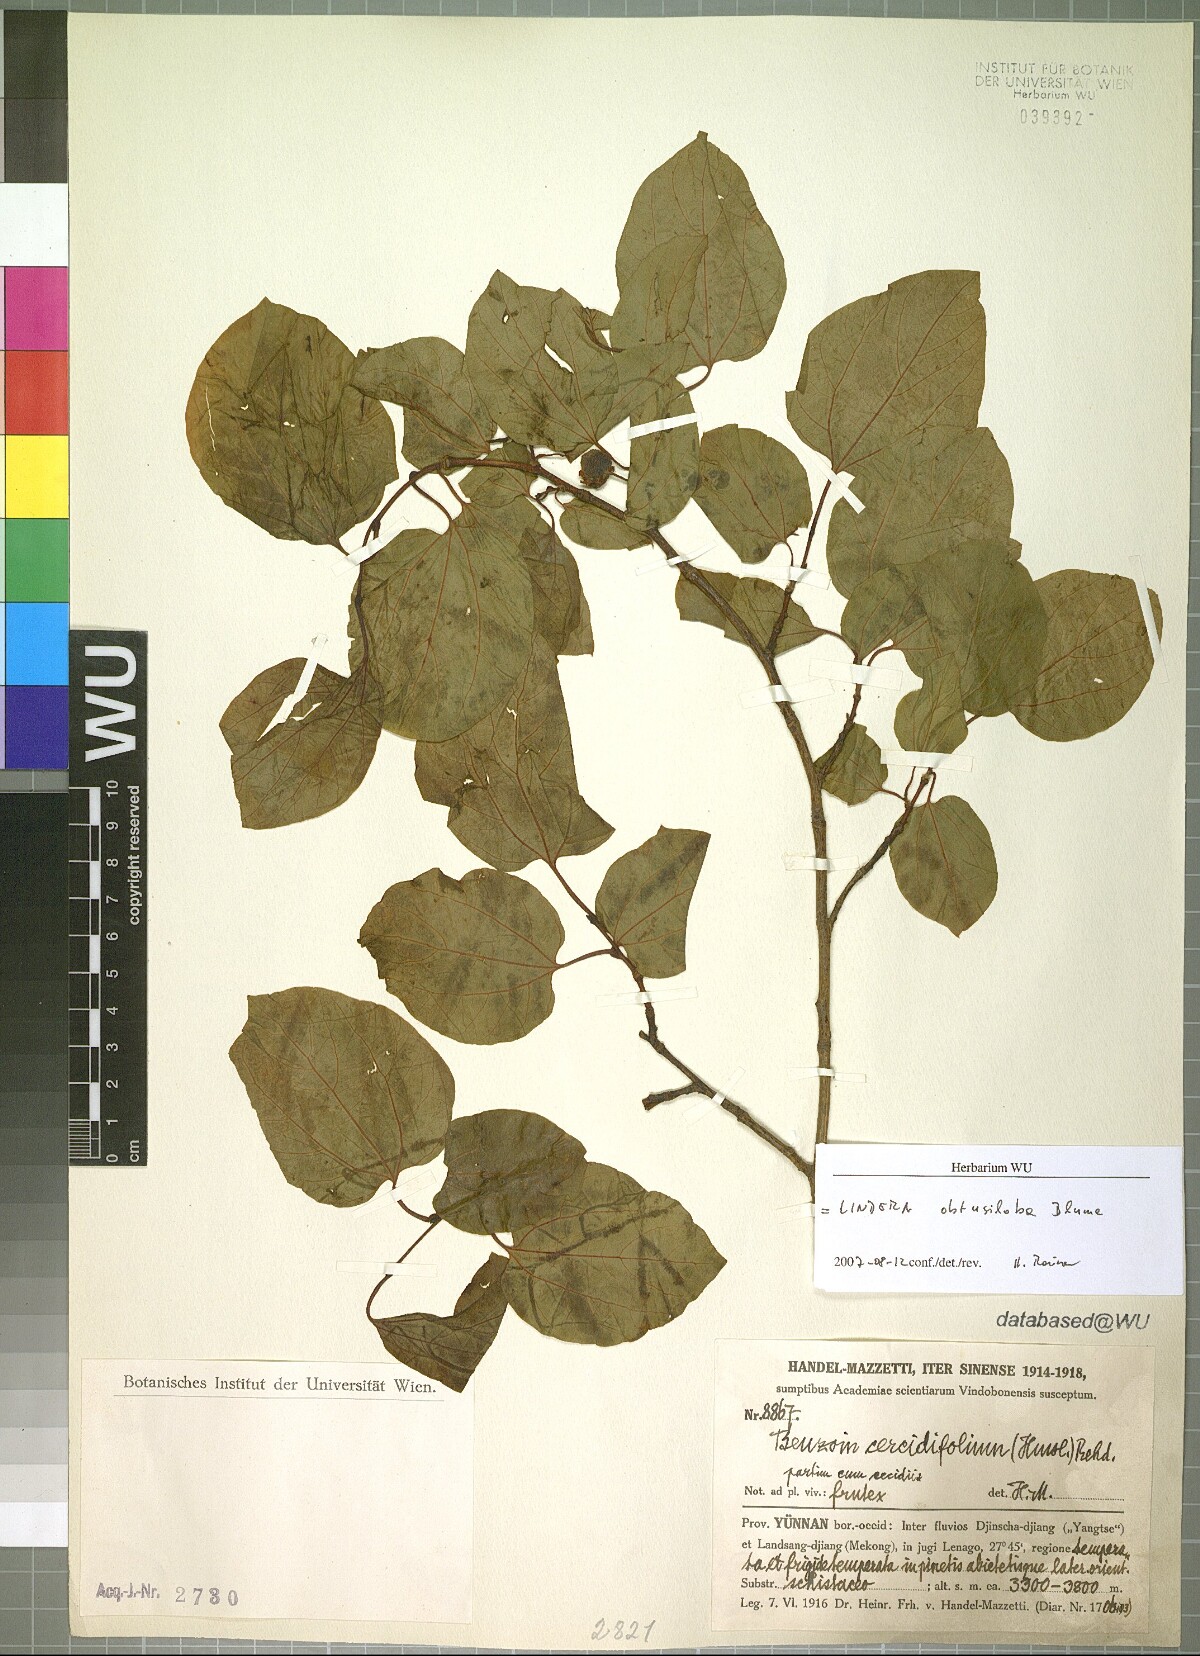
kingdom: Plantae
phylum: Tracheophyta
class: Magnoliopsida
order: Laurales
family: Lauraceae
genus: Lindera
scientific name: Lindera obtusiloba
